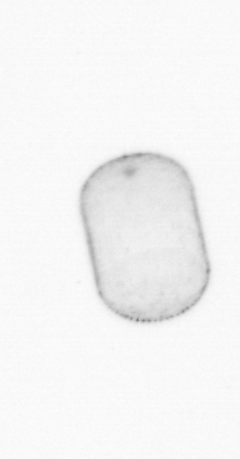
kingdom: Chromista
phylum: Ochrophyta
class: Bacillariophyceae
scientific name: Bacillariophyceae
